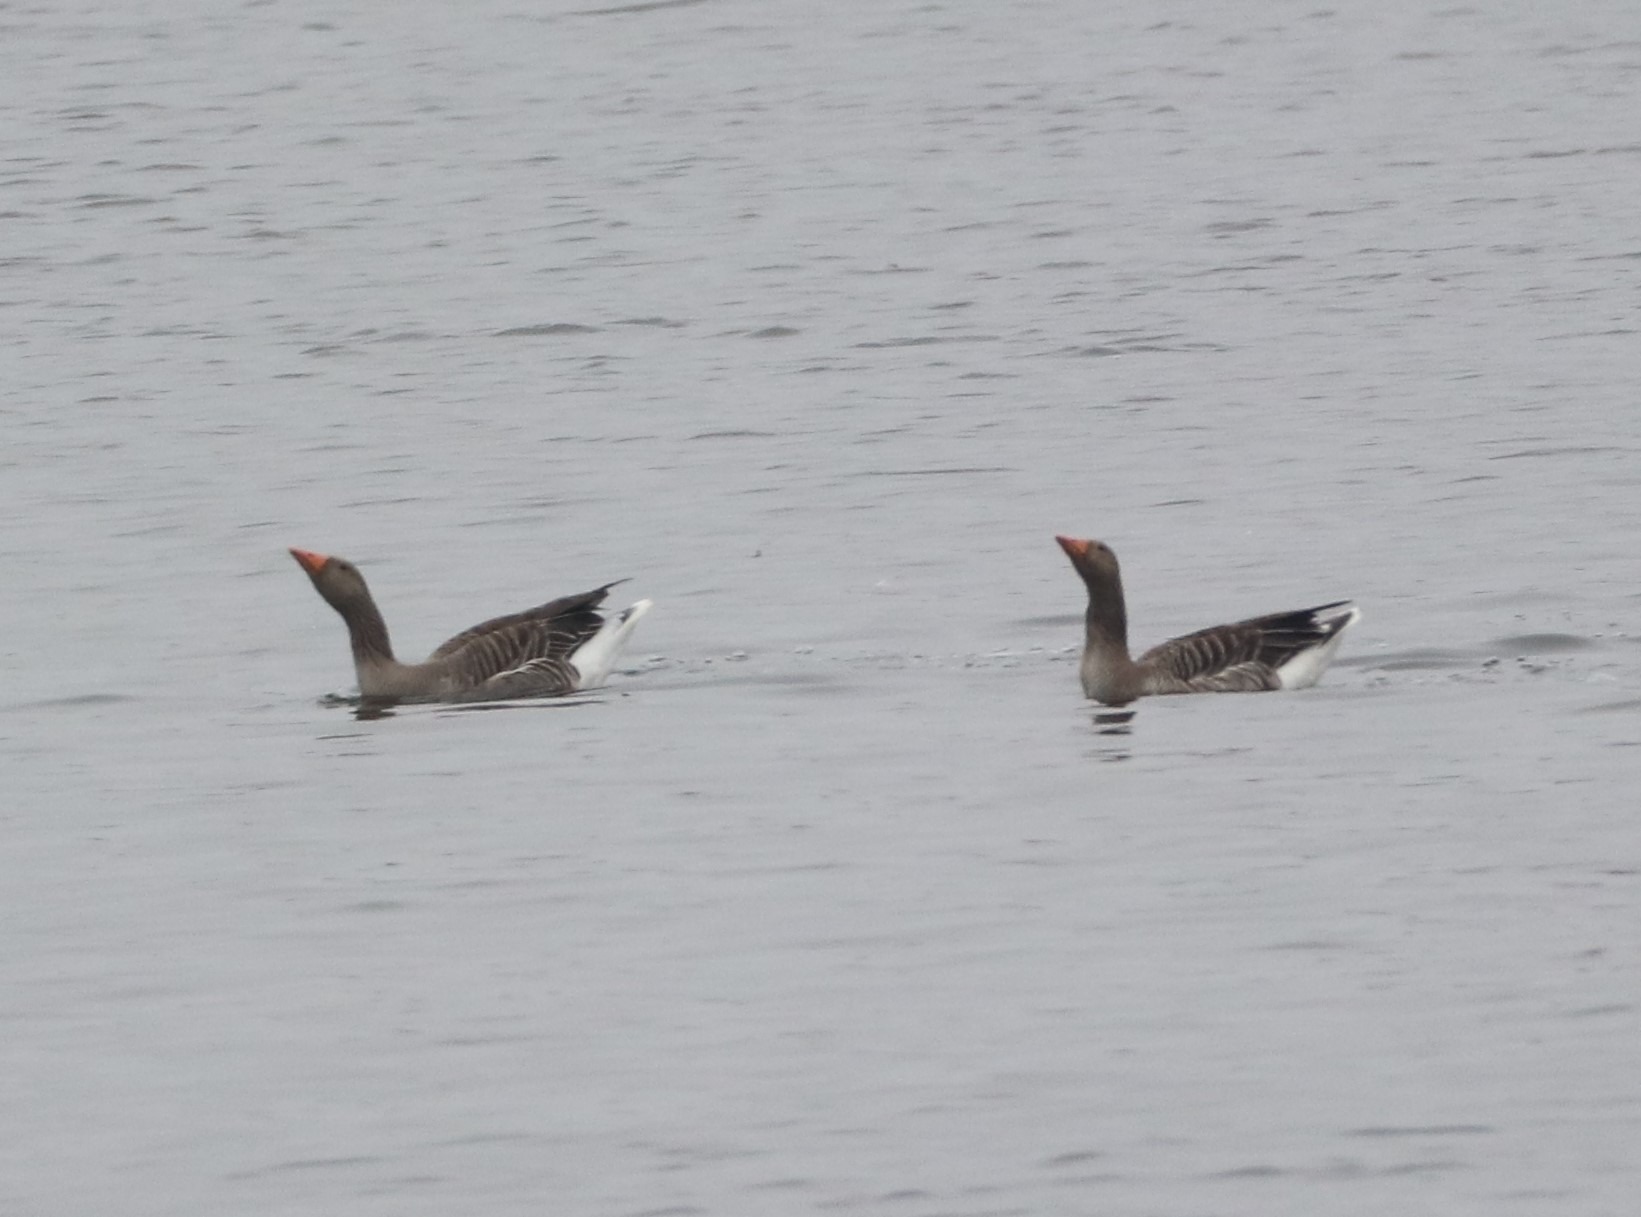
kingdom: Animalia
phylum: Chordata
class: Aves
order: Anseriformes
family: Anatidae
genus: Anser
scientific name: Anser anser
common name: Grågås
